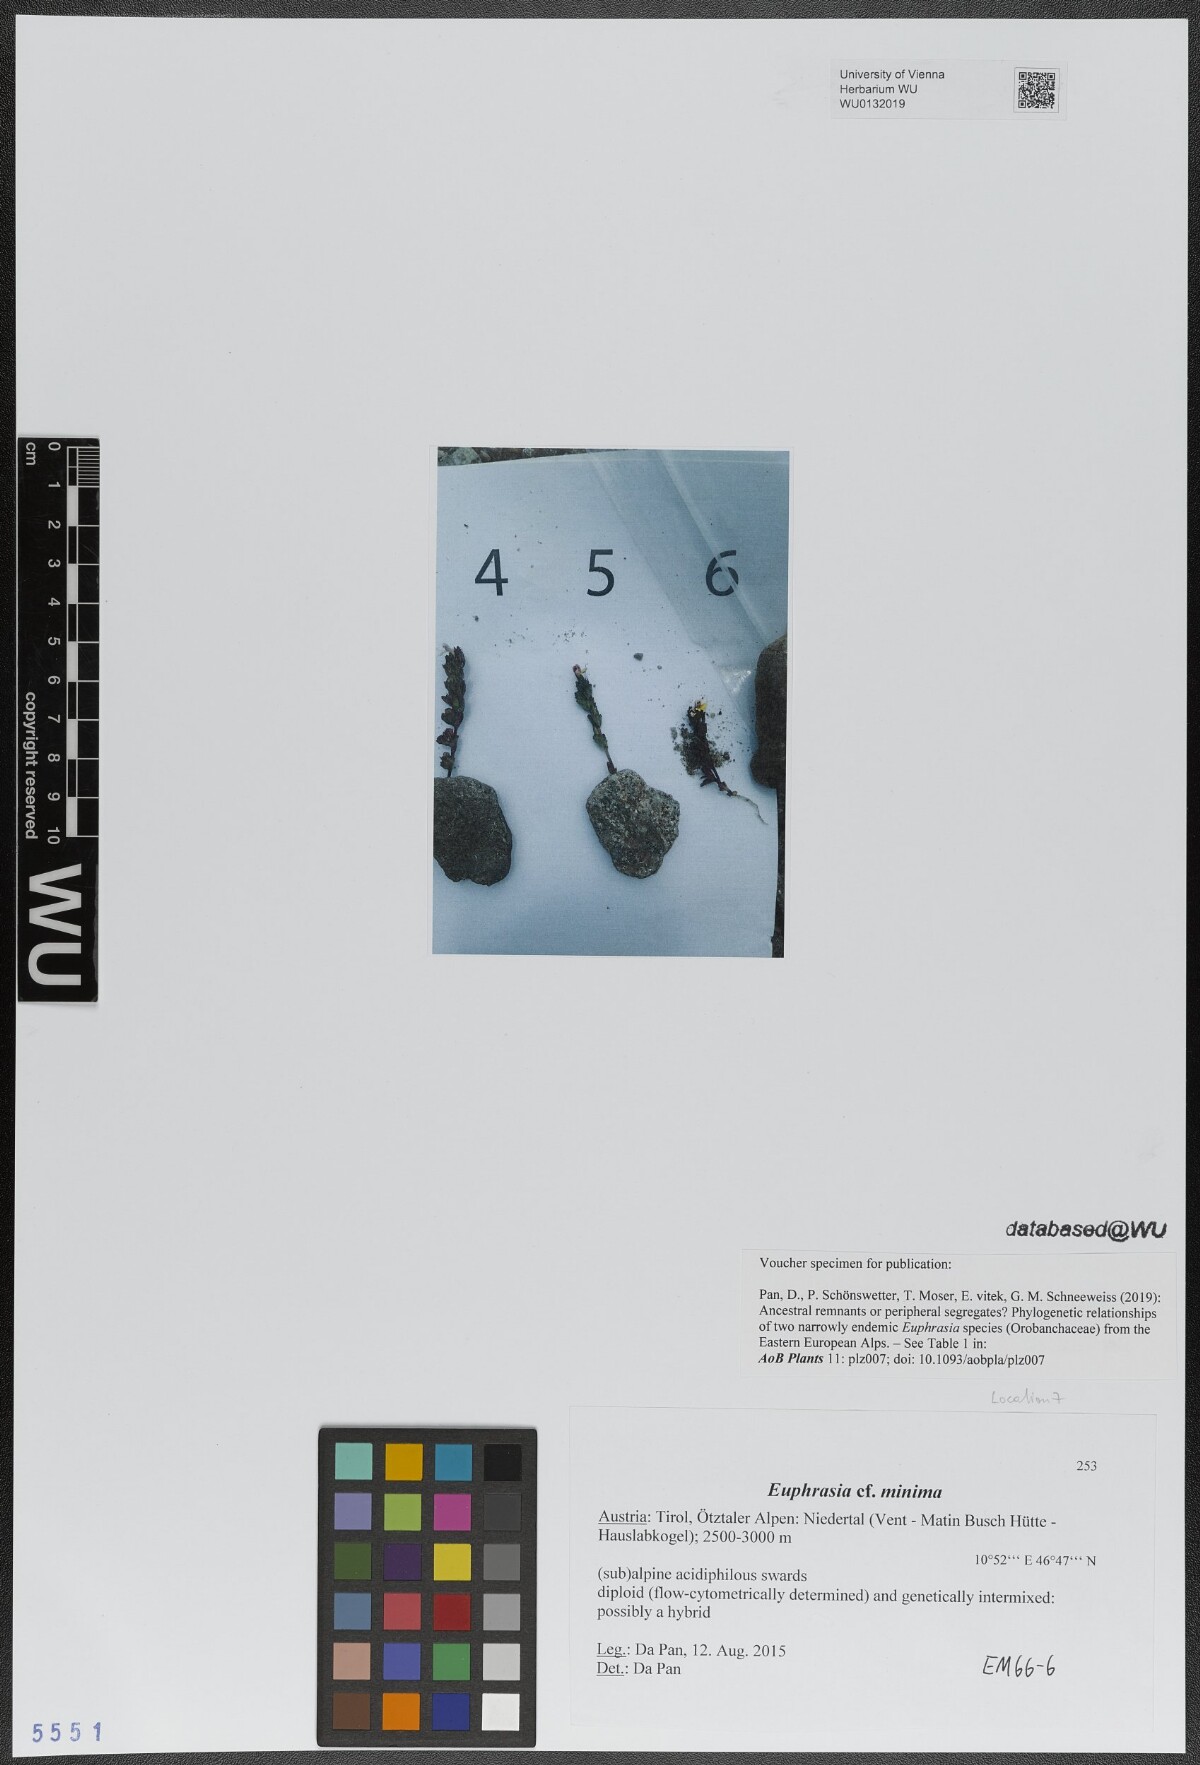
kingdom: Plantae
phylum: Tracheophyta
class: Magnoliopsida
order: Lamiales
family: Orobanchaceae
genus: Euphrasia
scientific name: Euphrasia minima
